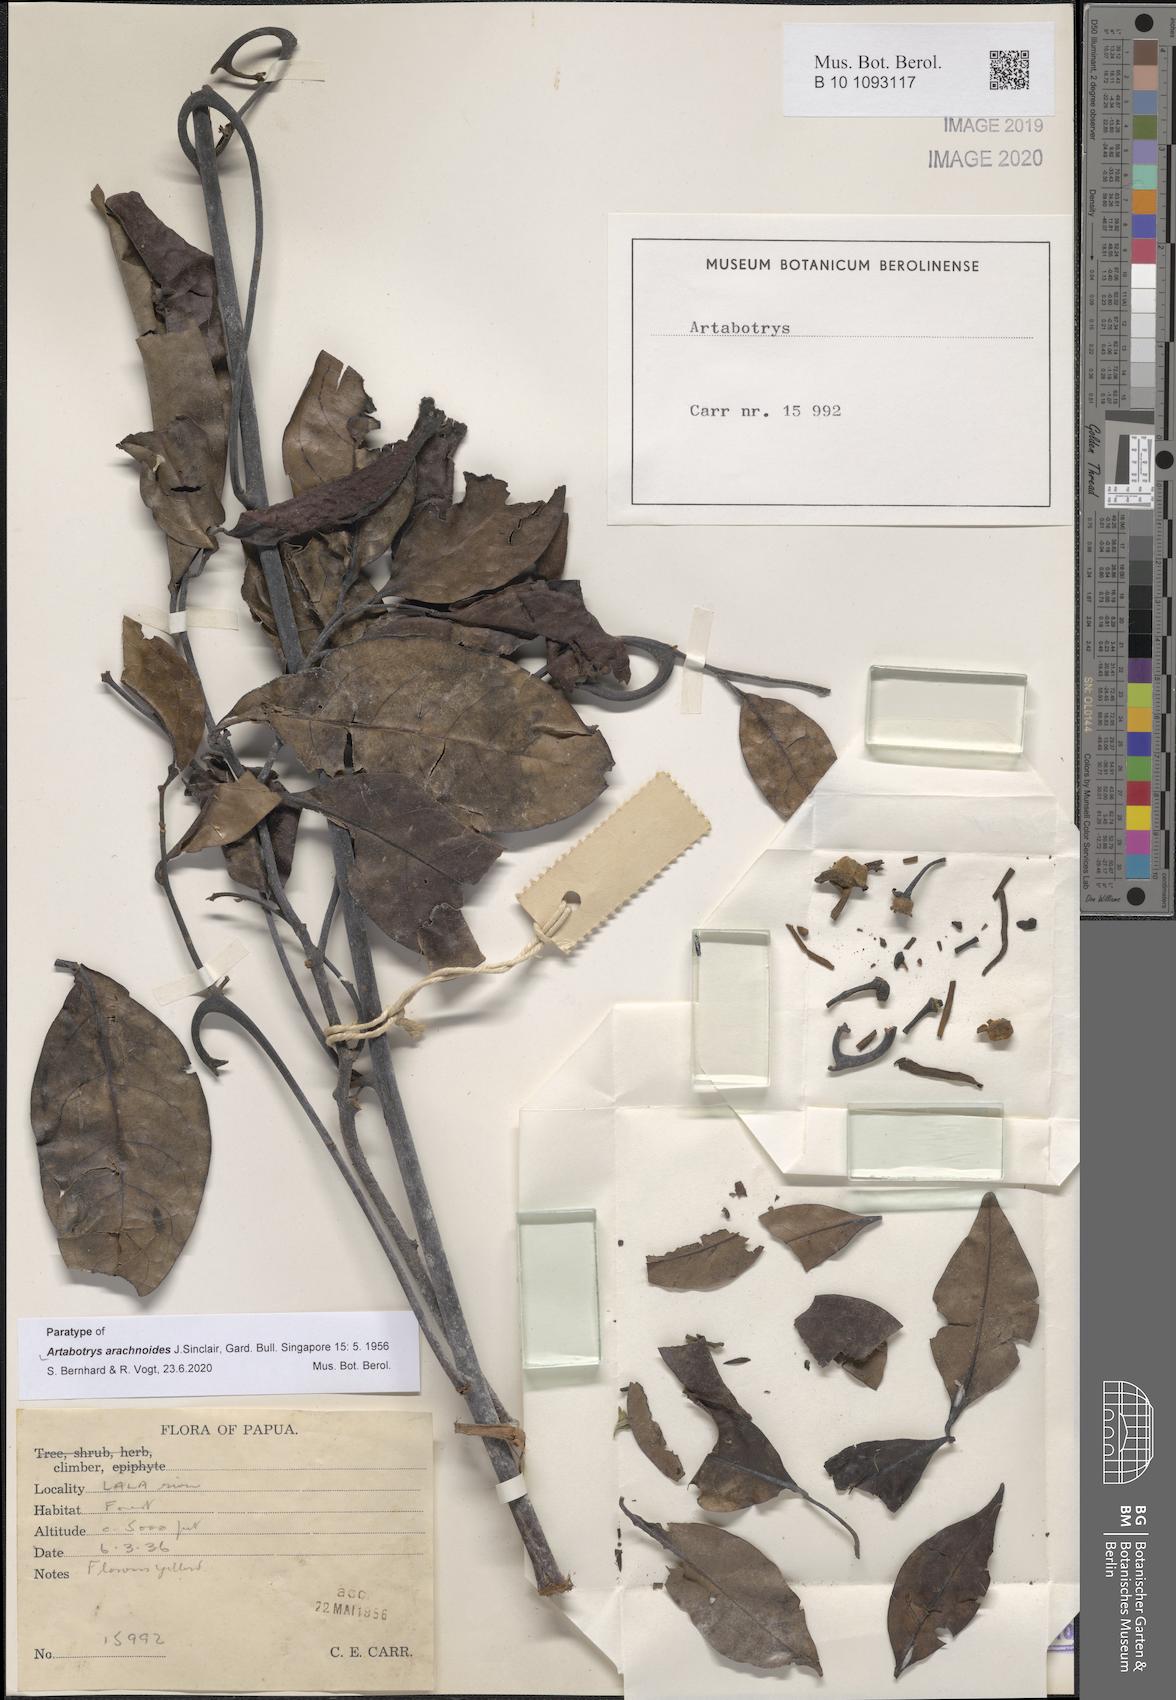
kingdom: Plantae
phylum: Tracheophyta
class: Magnoliopsida
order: Magnoliales
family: Annonaceae
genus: Artabotrys
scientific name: Artabotrys arachnoides
